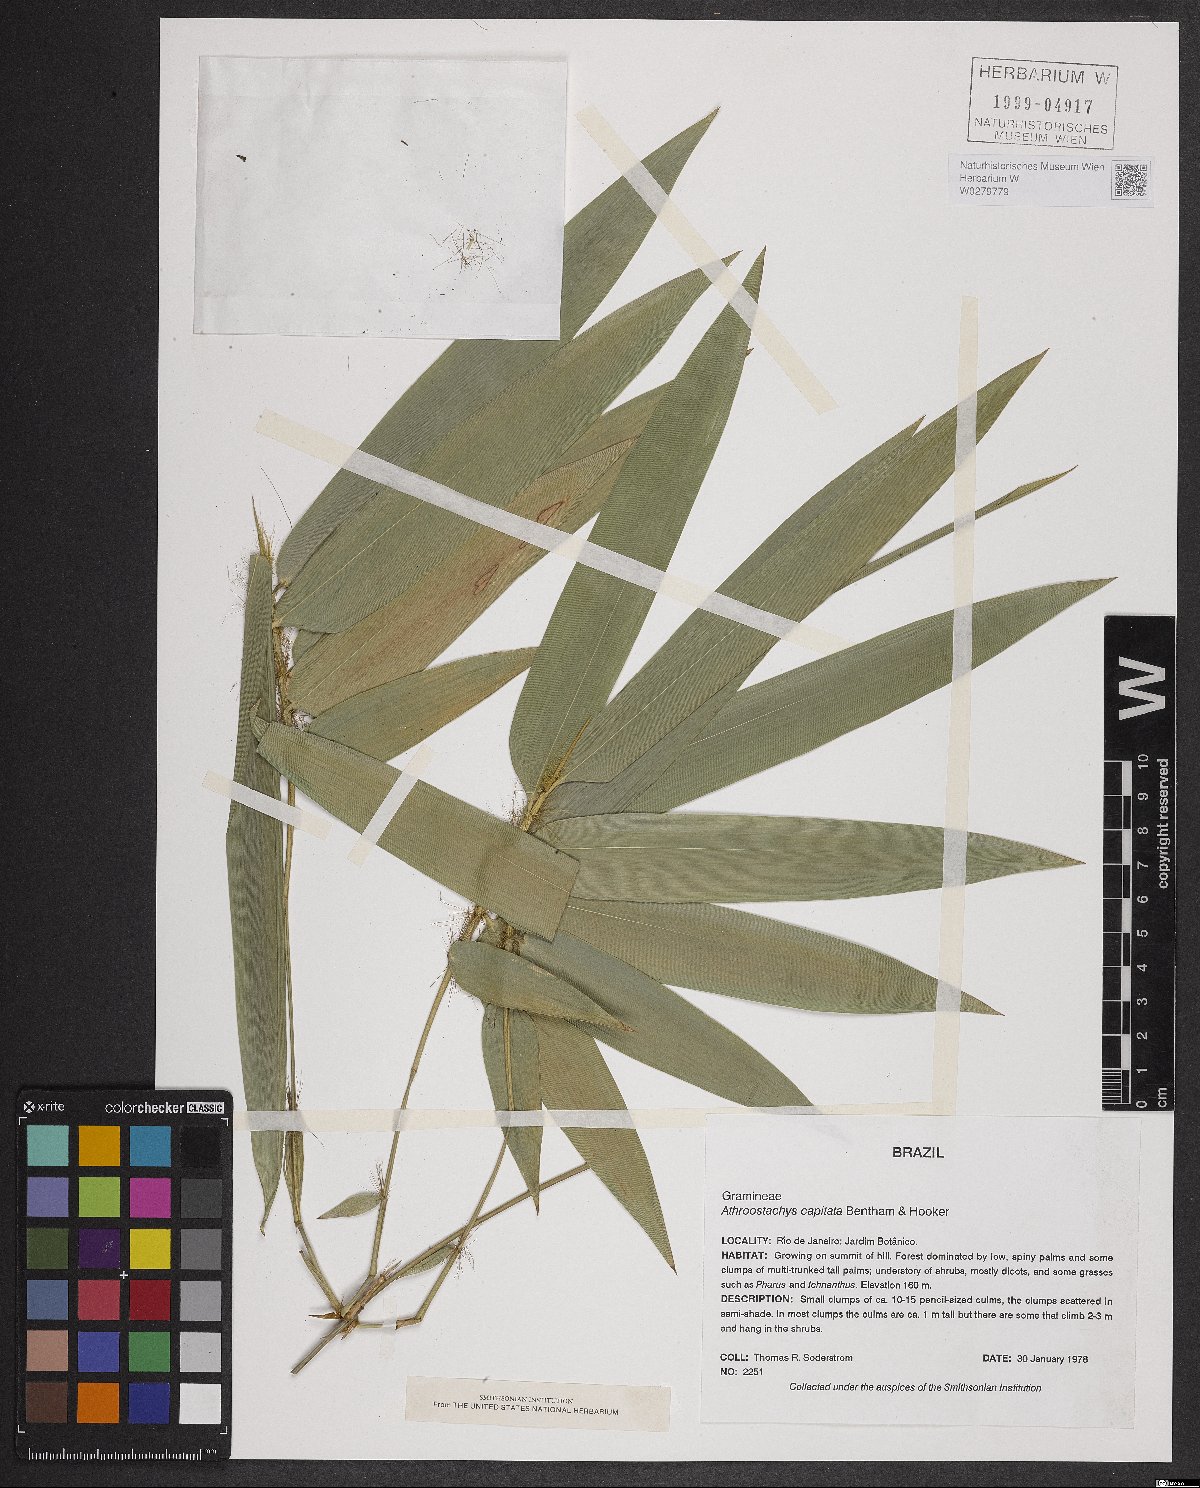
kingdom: Plantae
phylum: Tracheophyta
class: Liliopsida
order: Poales
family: Poaceae
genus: Athroostachys
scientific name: Athroostachys capitata
